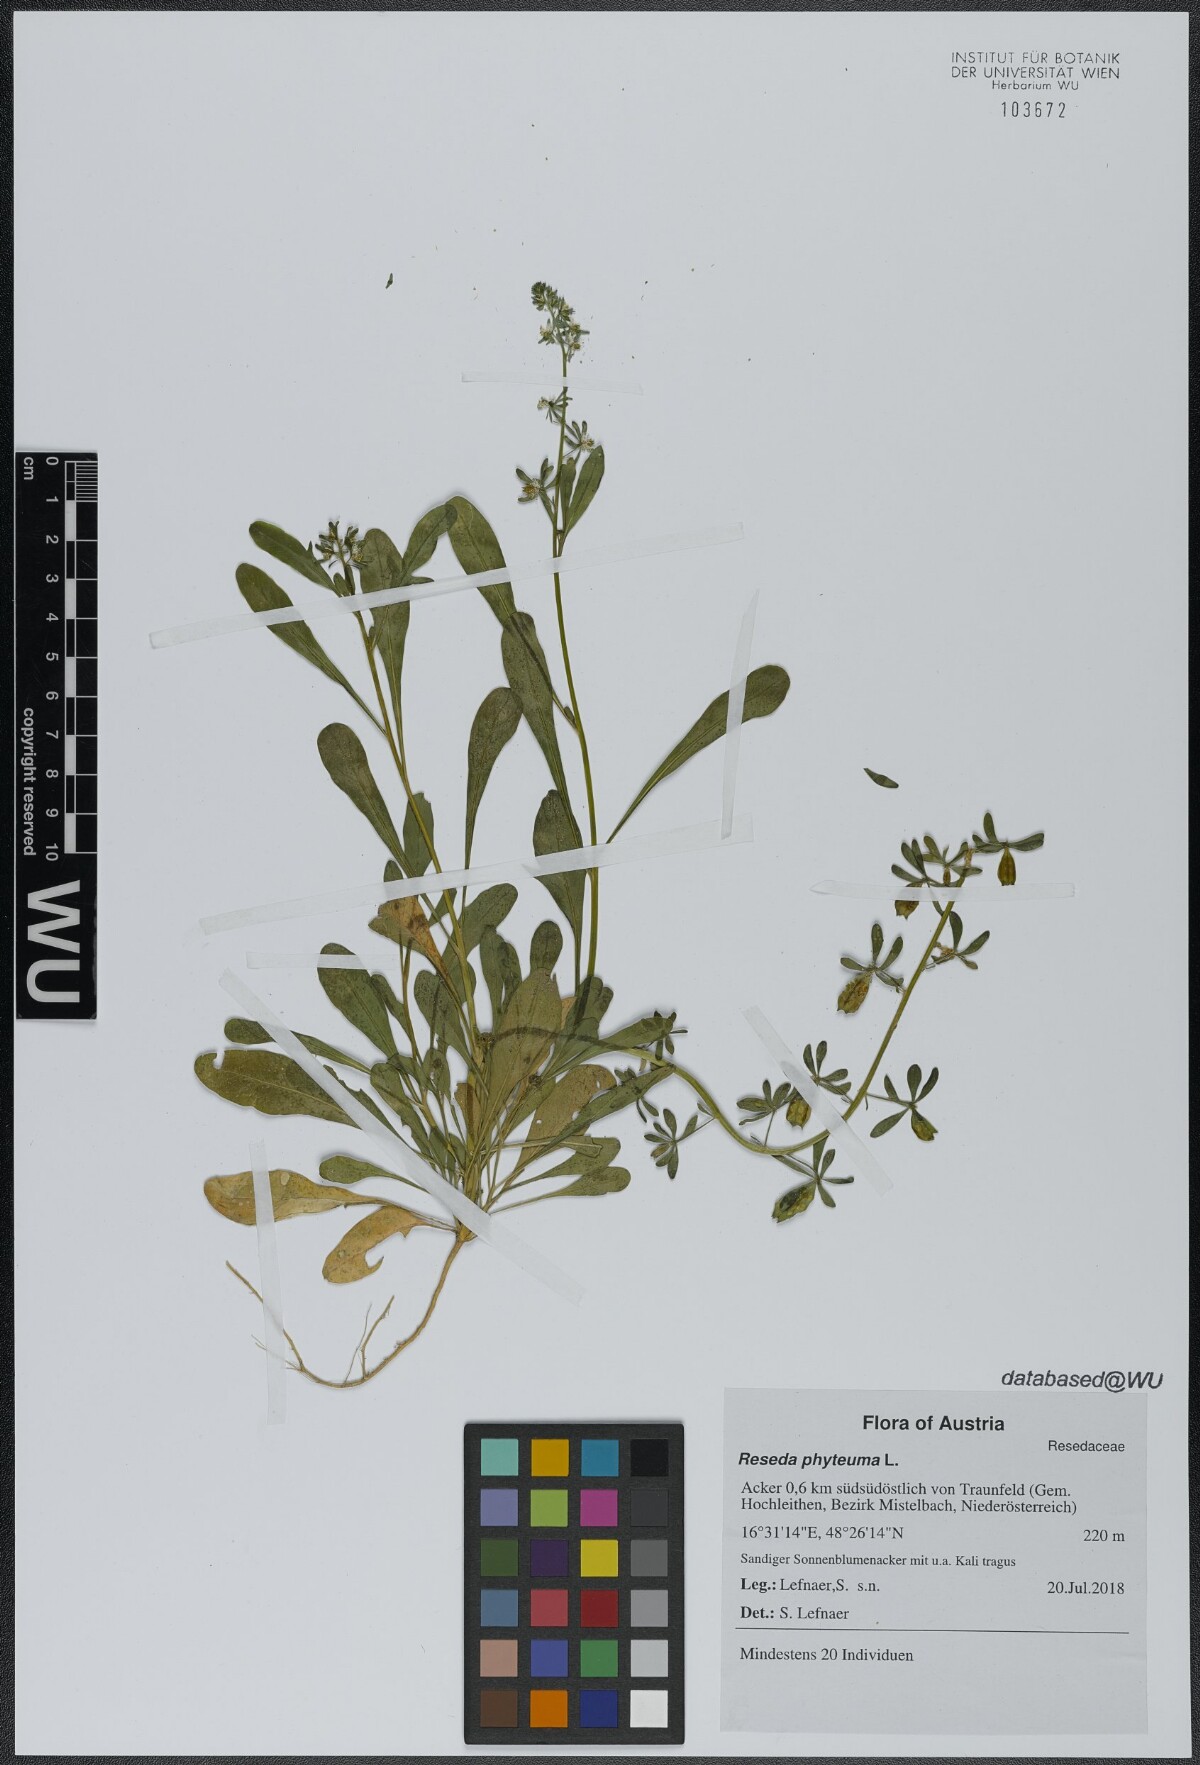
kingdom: Plantae
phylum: Tracheophyta
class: Magnoliopsida
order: Brassicales
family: Resedaceae
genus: Reseda
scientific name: Reseda phyteuma
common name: Corn mignonette
